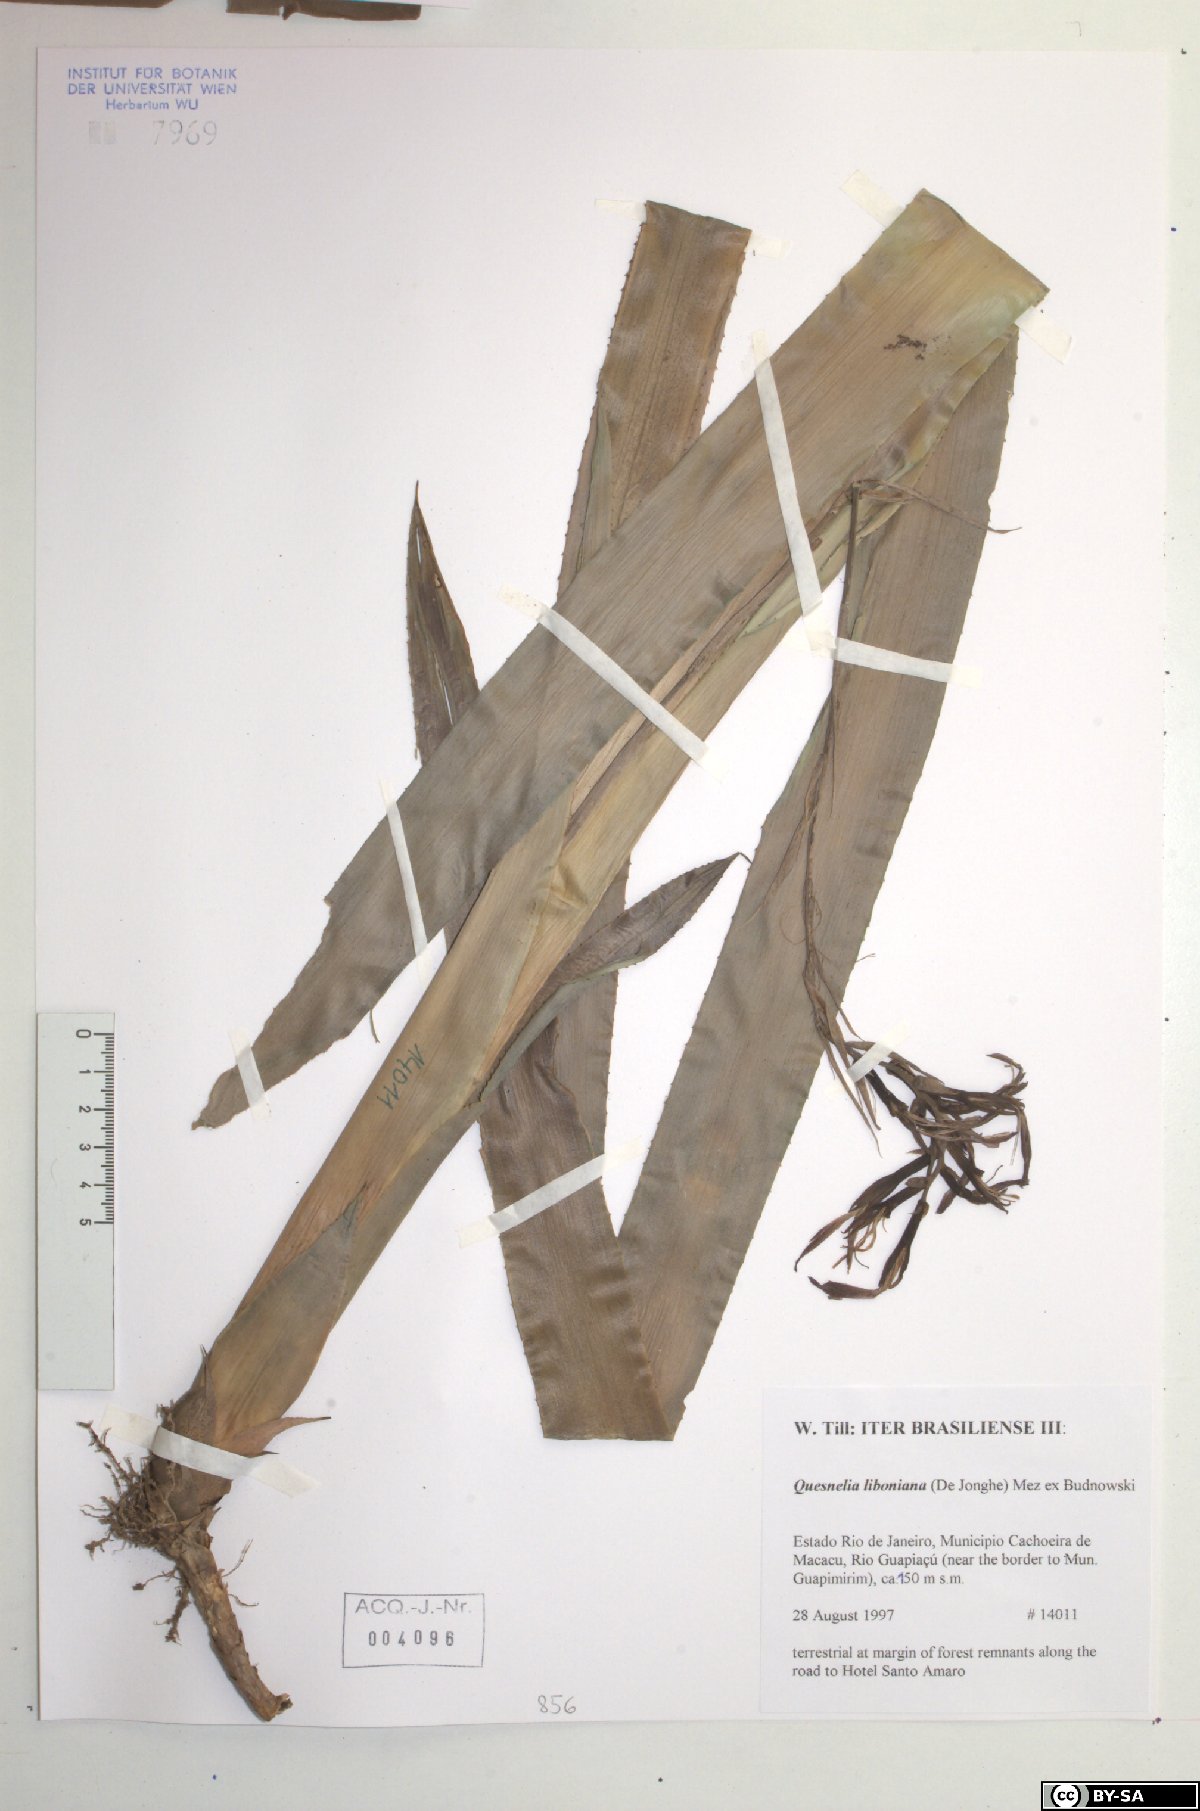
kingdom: Plantae
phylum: Tracheophyta
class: Liliopsida
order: Poales
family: Bromeliaceae
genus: Quesnelia
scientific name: Quesnelia liboniana
